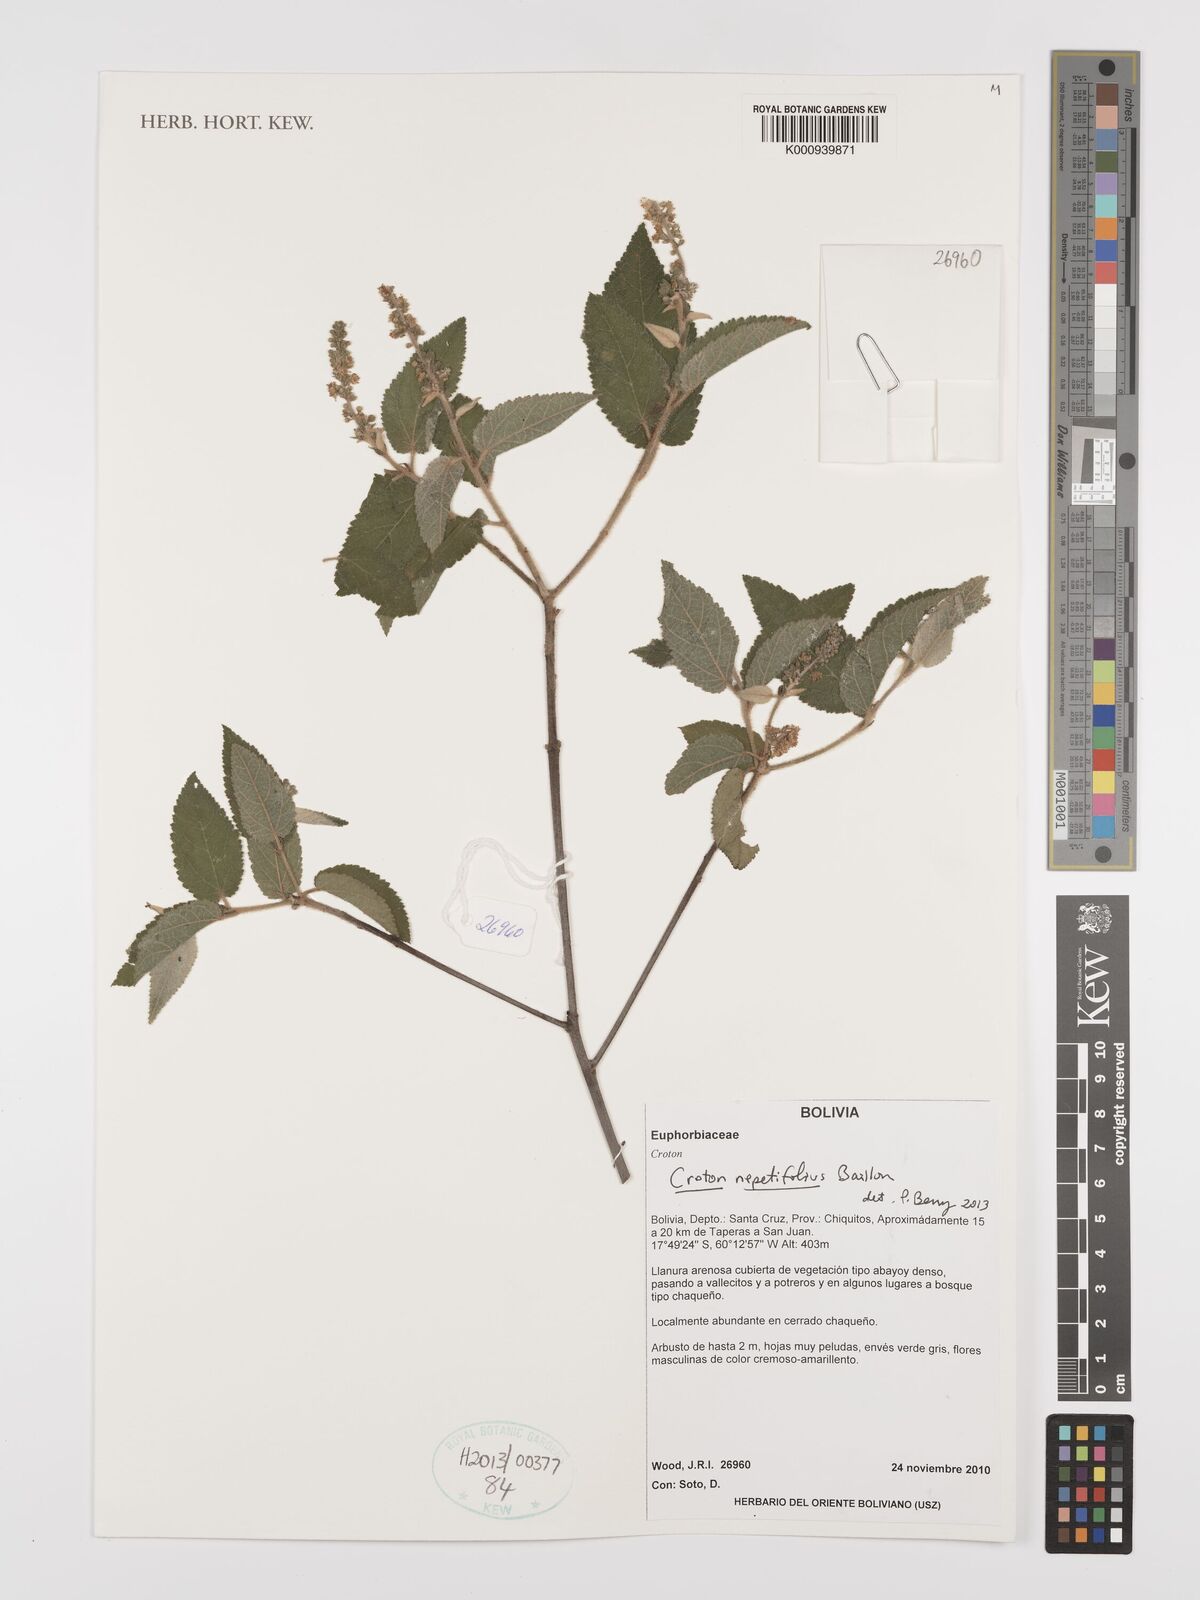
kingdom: Plantae
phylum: Tracheophyta
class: Magnoliopsida
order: Malpighiales
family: Euphorbiaceae
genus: Croton
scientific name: Croton nepetifolius
